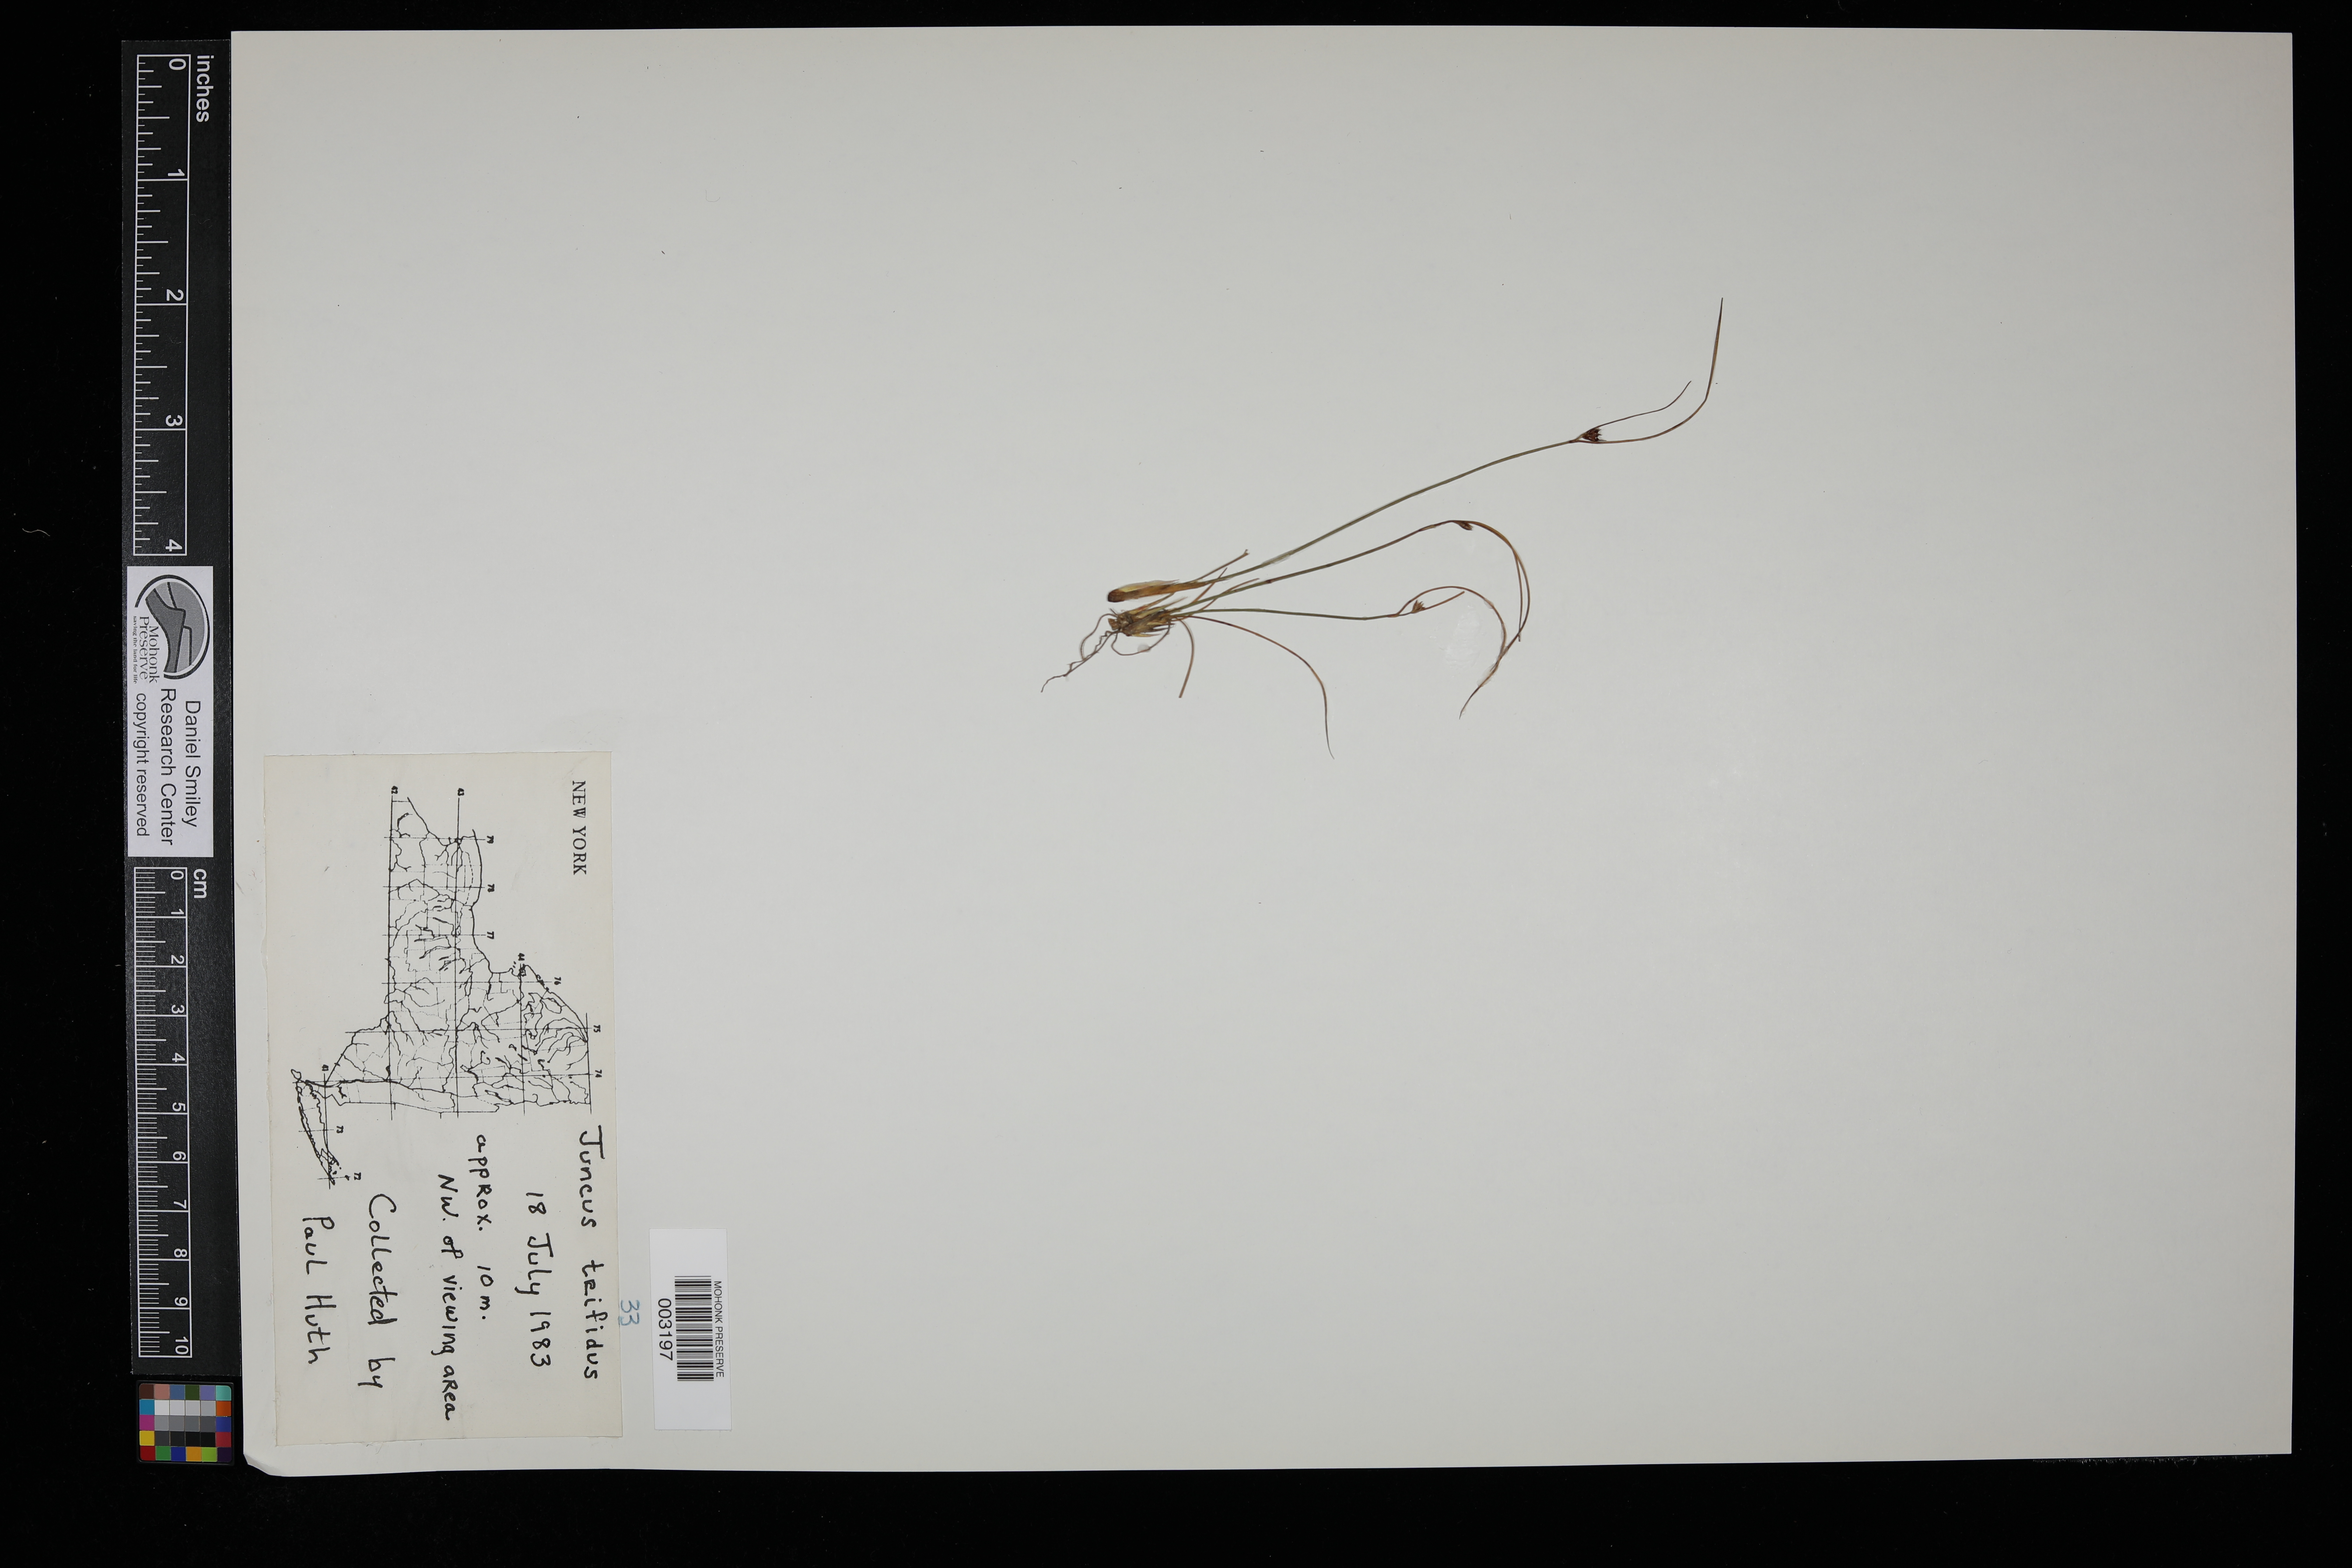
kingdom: Plantae
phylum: Tracheophyta
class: Liliopsida
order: Poales
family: Juncaceae
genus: Oreojuncus
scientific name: Oreojuncus trifidus
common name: Highland rush
